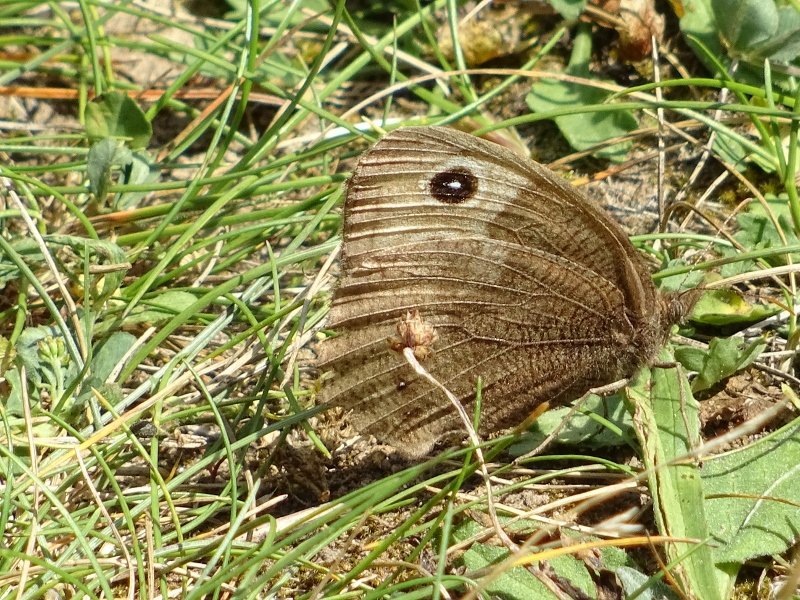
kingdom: Animalia
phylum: Arthropoda
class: Insecta
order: Lepidoptera
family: Nymphalidae
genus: Cercyonis
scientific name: Cercyonis pegala
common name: Common Wood-Nymph
